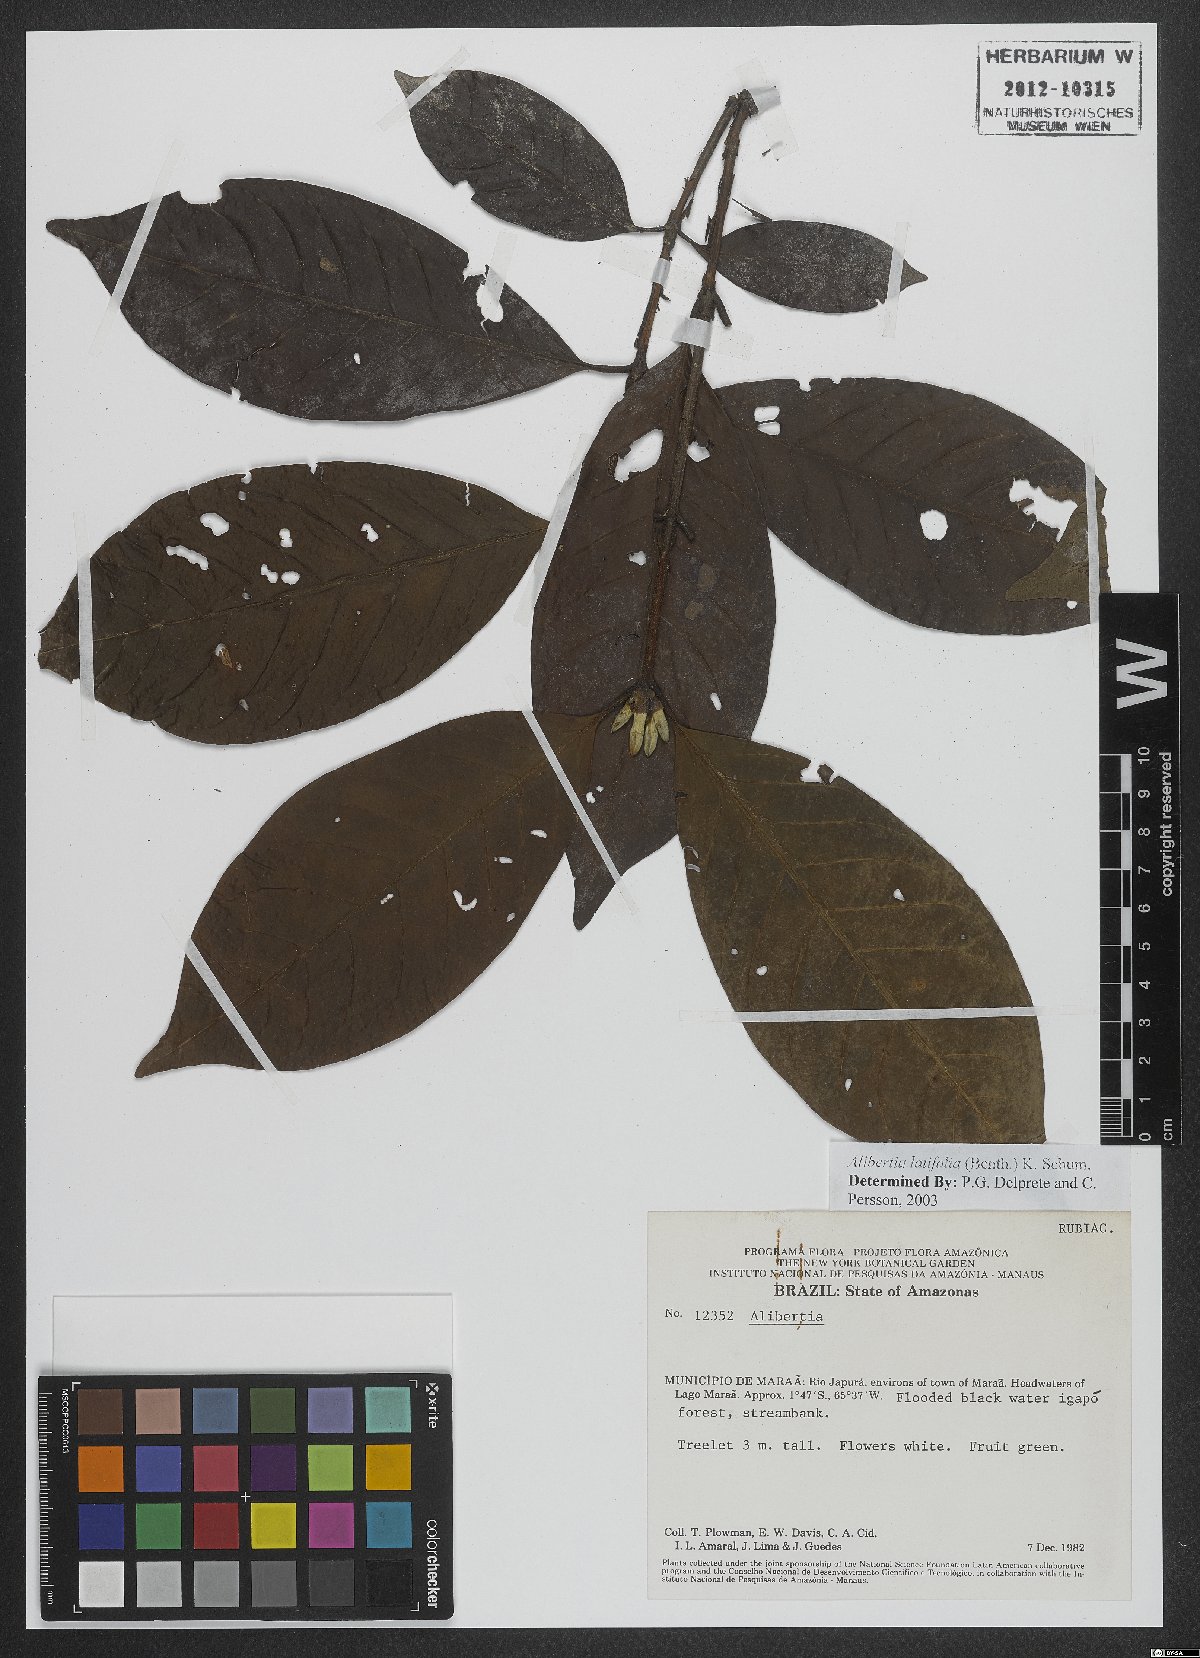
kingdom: Plantae
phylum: Tracheophyta
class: Magnoliopsida
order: Gentianales
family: Rubiaceae
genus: Alibertia
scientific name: Alibertia latifolia
